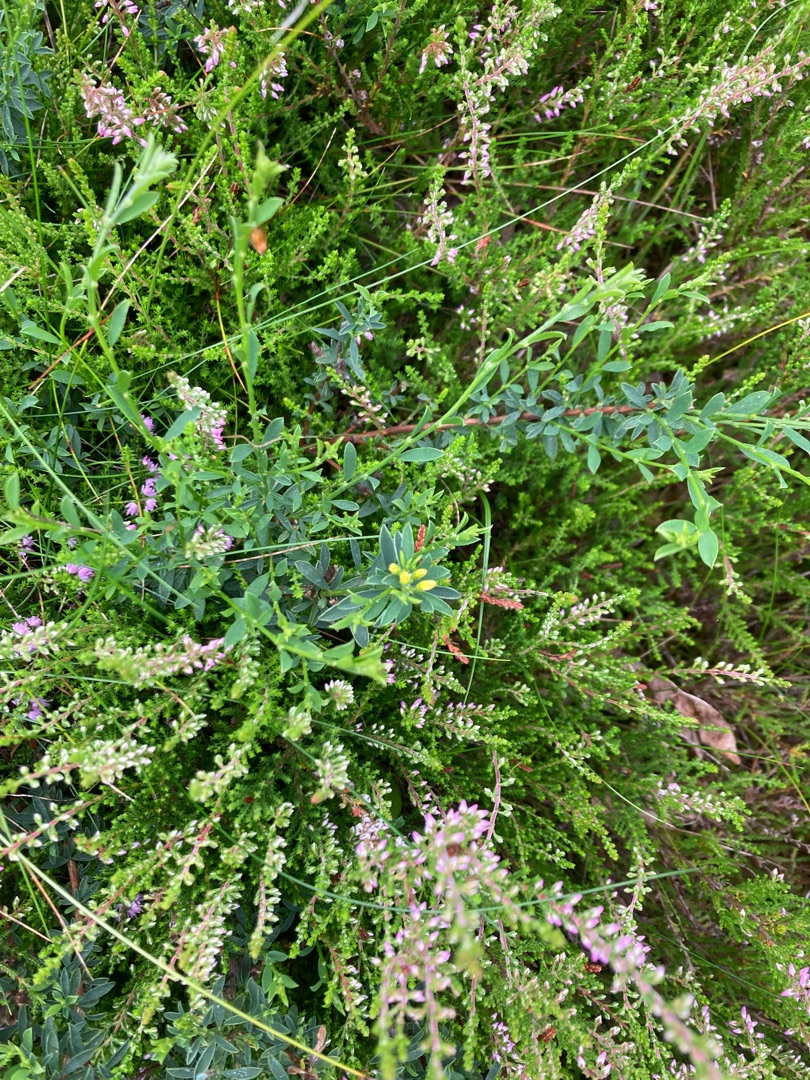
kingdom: Plantae
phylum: Tracheophyta
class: Magnoliopsida
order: Fabales
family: Fabaceae
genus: Genista
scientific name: Genista pilosa
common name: Håret visse
